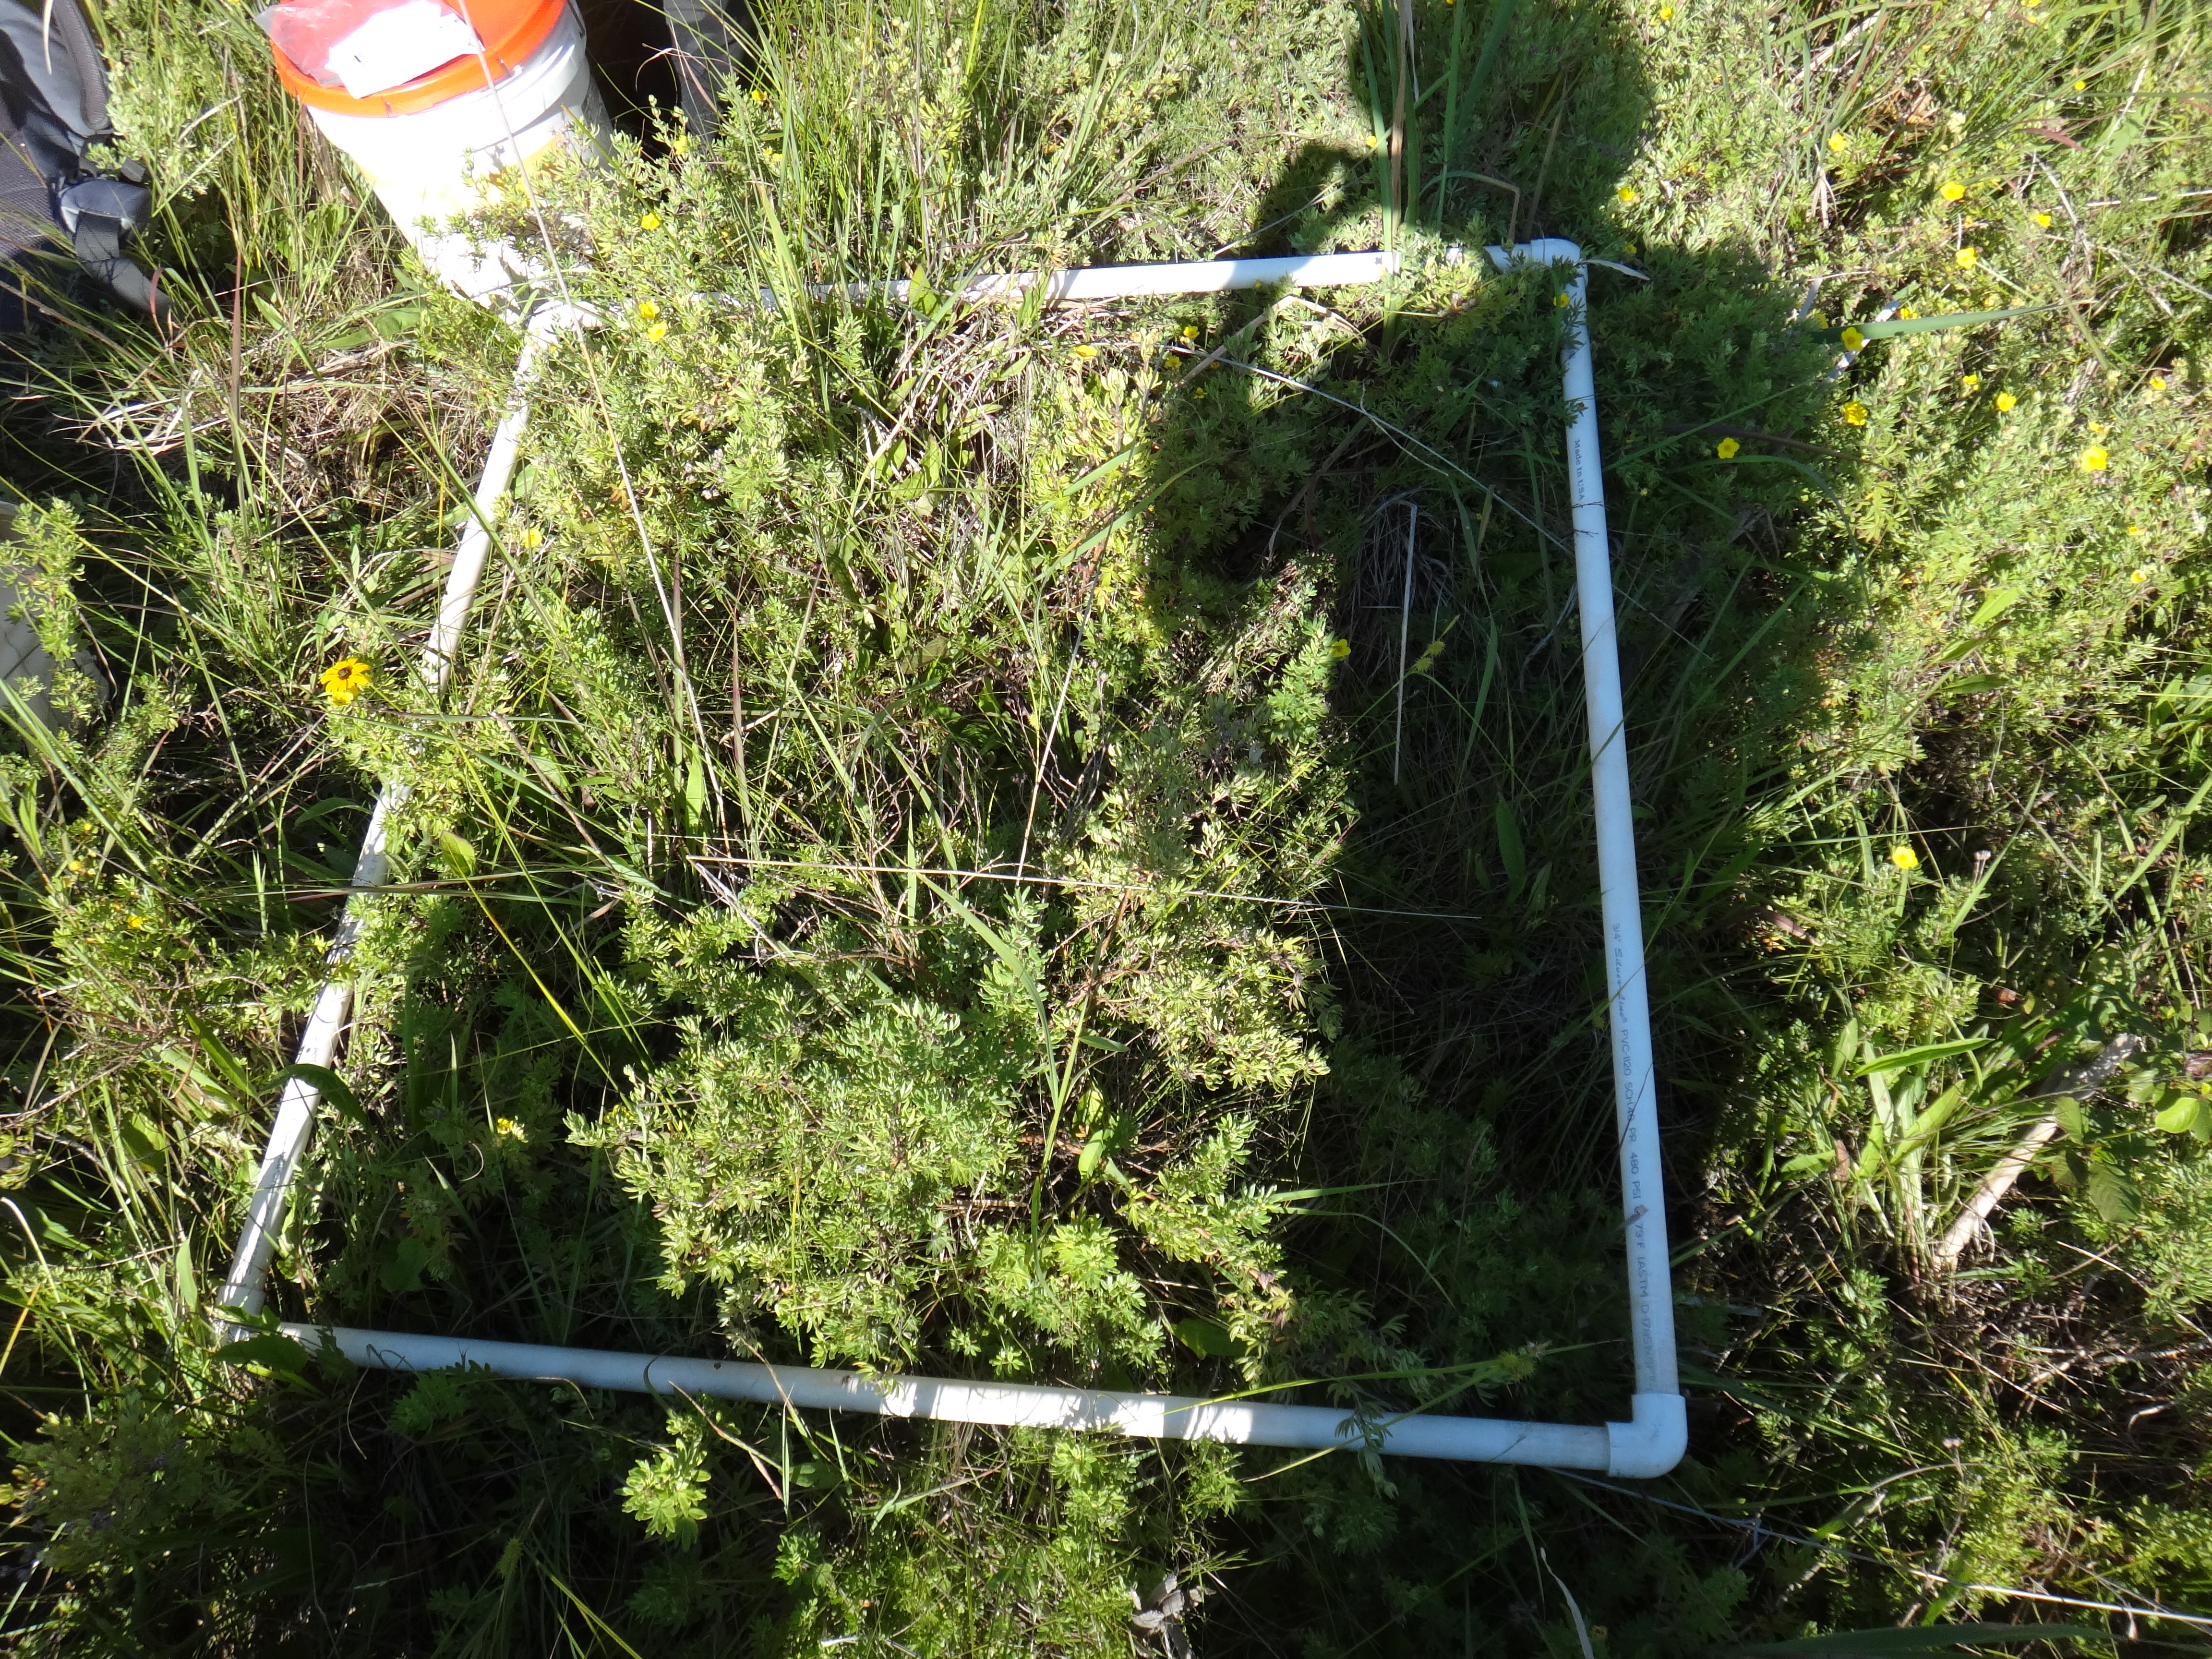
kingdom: Plantae
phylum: Tracheophyta
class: Magnoliopsida
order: Asterales
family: Asteraceae
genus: Solidago
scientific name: Solidago patula
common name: Rough-leaf goldenrod
